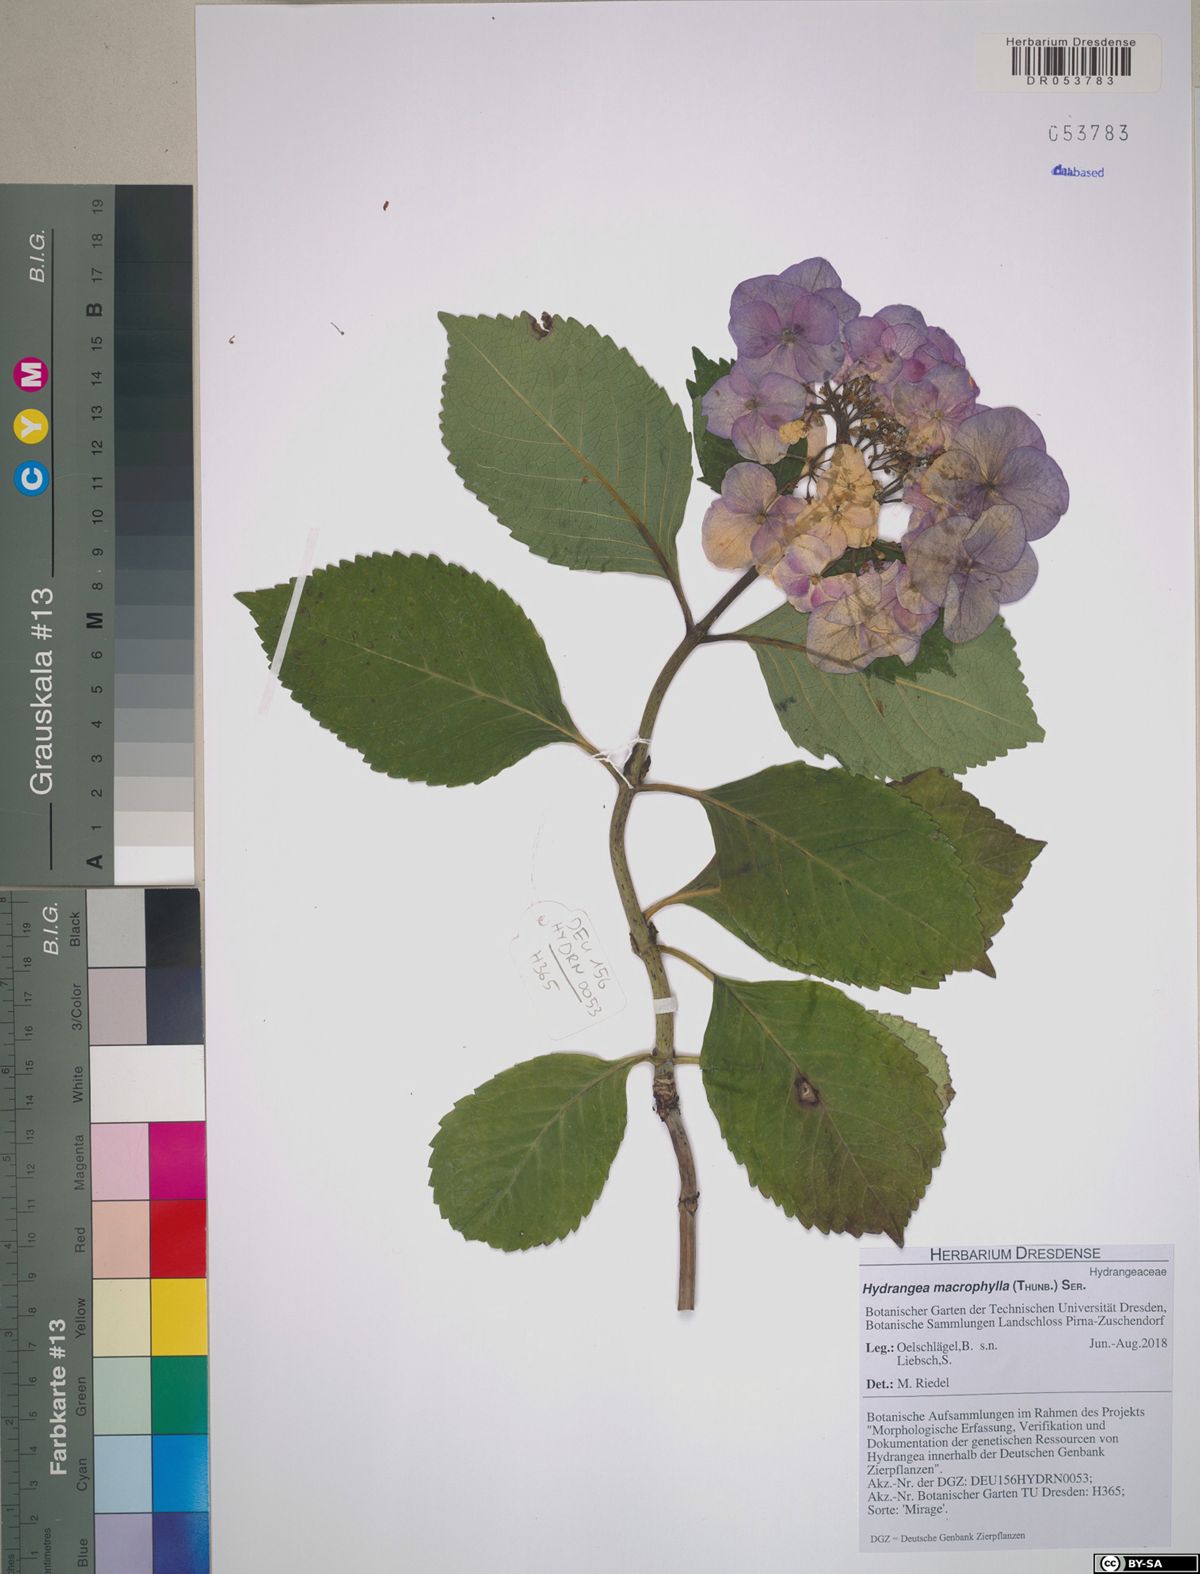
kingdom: Plantae
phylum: Tracheophyta
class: Magnoliopsida
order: Cornales
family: Hydrangeaceae
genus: Hydrangea
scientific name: Hydrangea macrophylla
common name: Hydrangea
